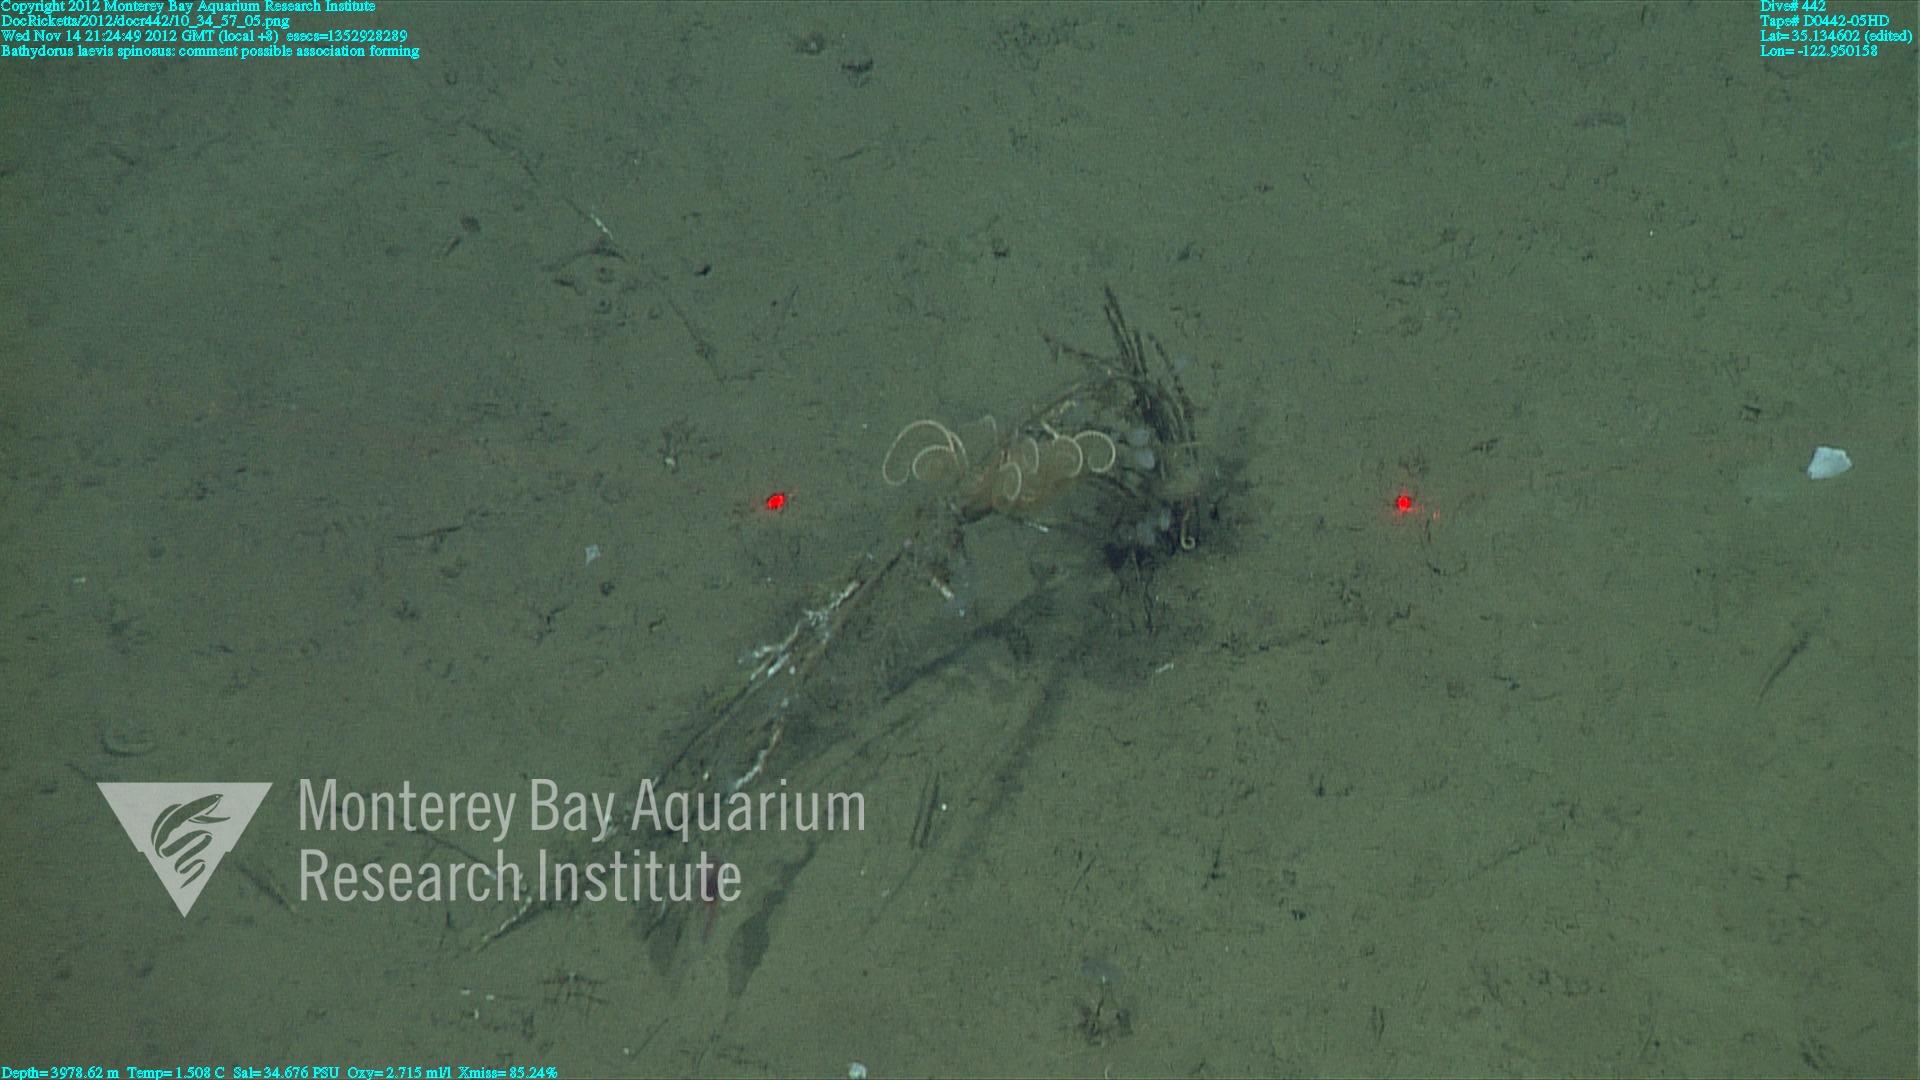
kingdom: Animalia
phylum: Porifera
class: Hexactinellida
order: Lyssacinosida
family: Rossellidae
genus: Bathydorus
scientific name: Bathydorus spinosus
